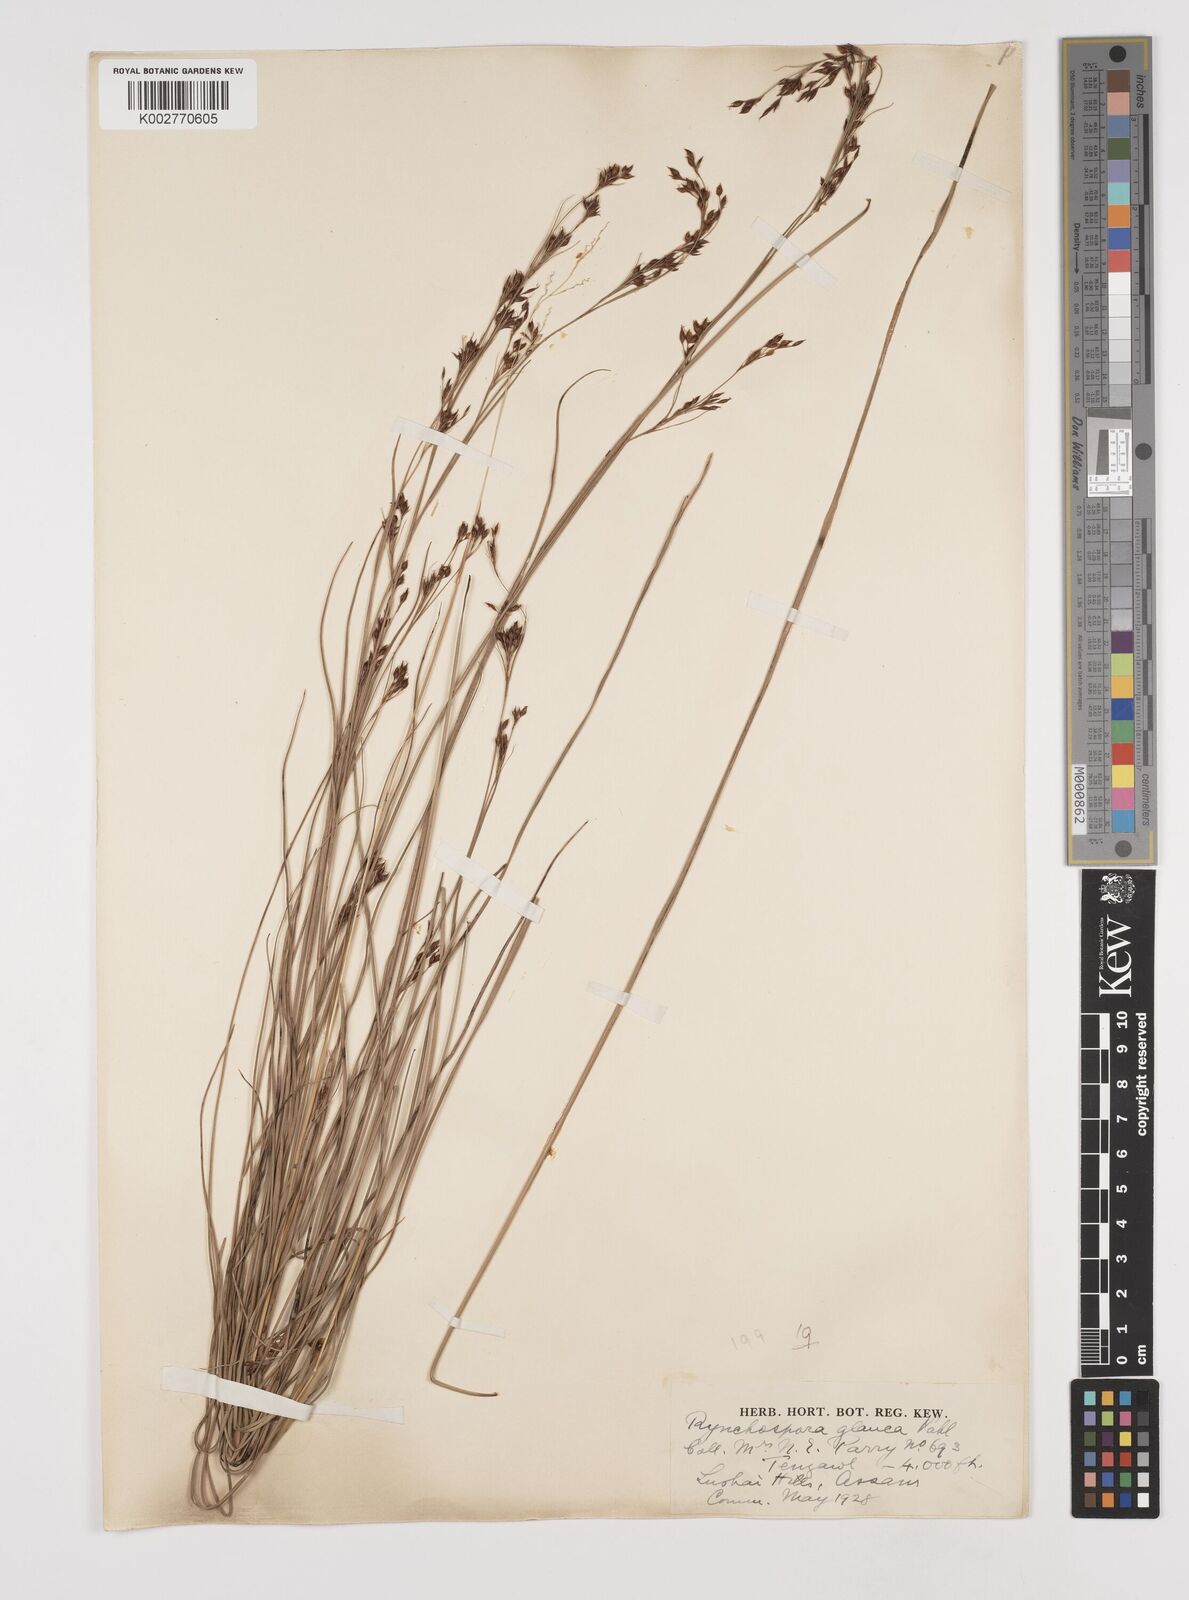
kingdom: Plantae
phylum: Tracheophyta
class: Liliopsida
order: Poales
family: Cyperaceae
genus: Rhynchospora
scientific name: Rhynchospora rugosa
